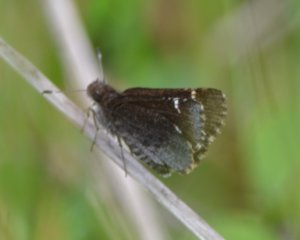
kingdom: Animalia
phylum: Arthropoda
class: Insecta
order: Lepidoptera
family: Hesperiidae
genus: Mastor
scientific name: Mastor vialis
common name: Common Roadside-Skipper
